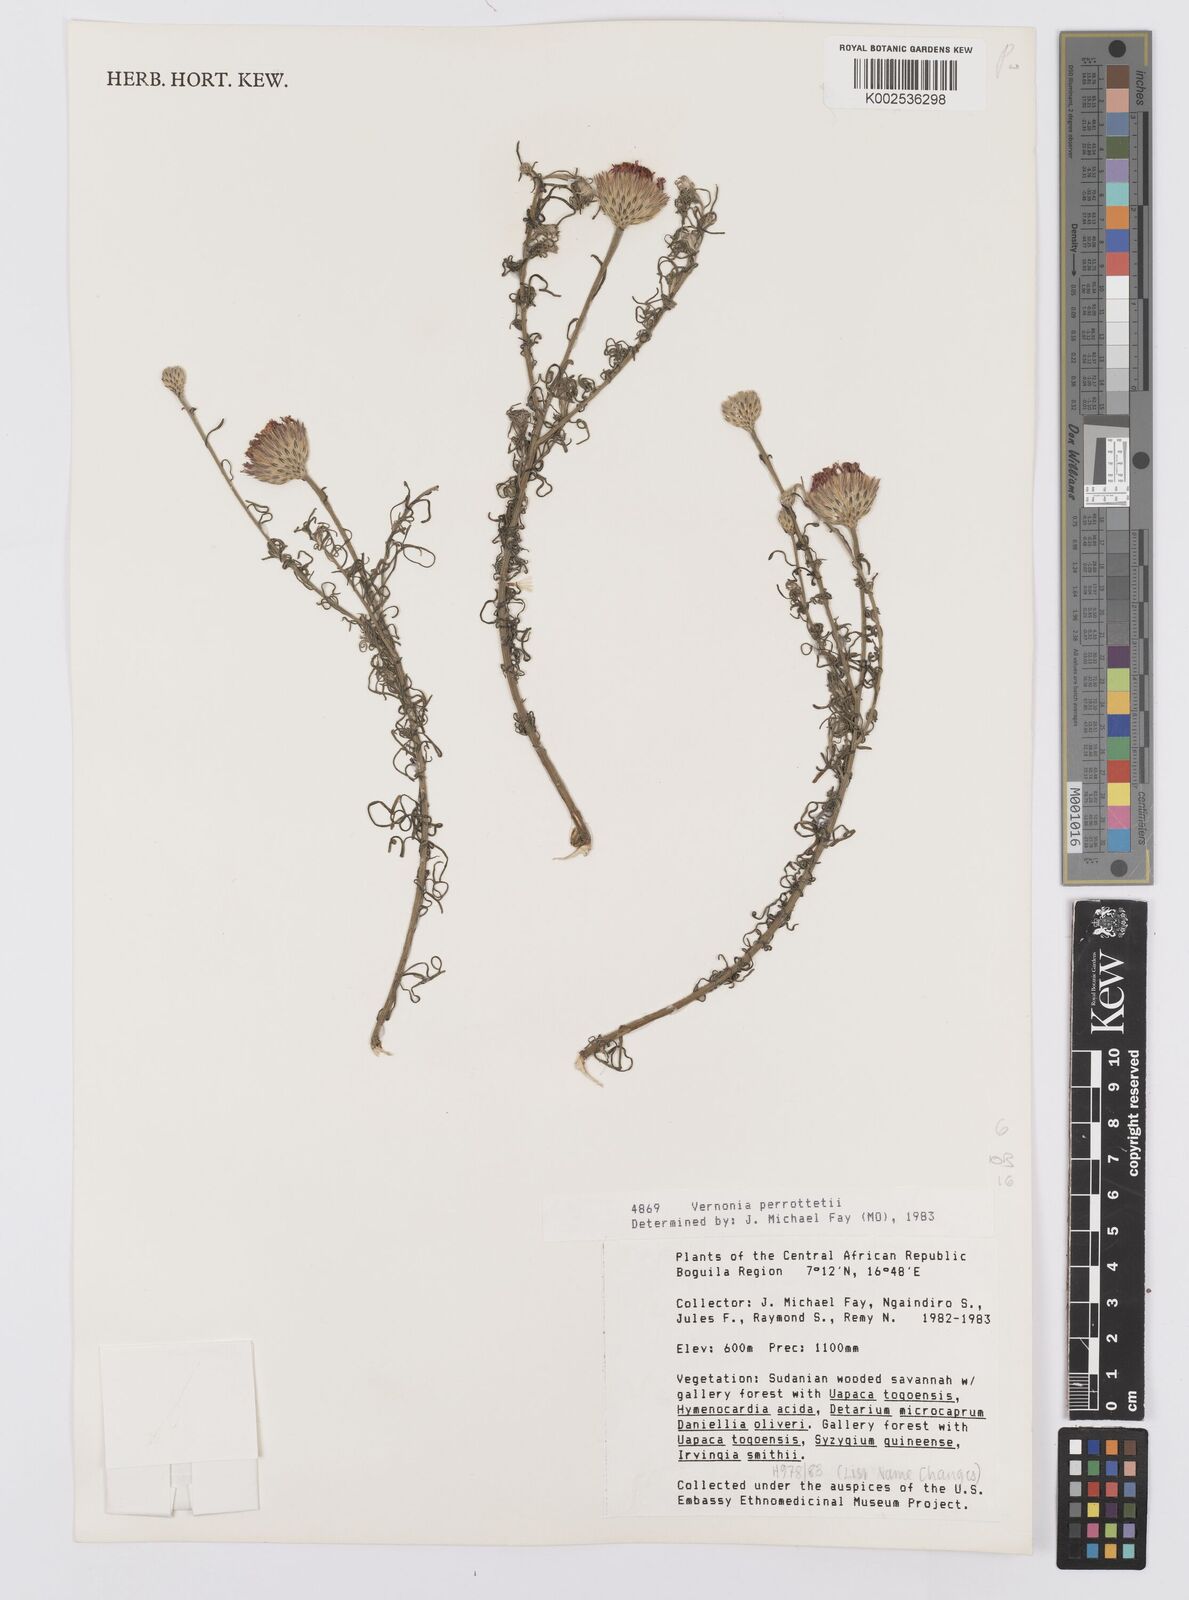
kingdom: Plantae
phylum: Tracheophyta
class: Magnoliopsida
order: Asterales
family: Asteraceae
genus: Crystallopollen
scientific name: Crystallopollen serratuloides
